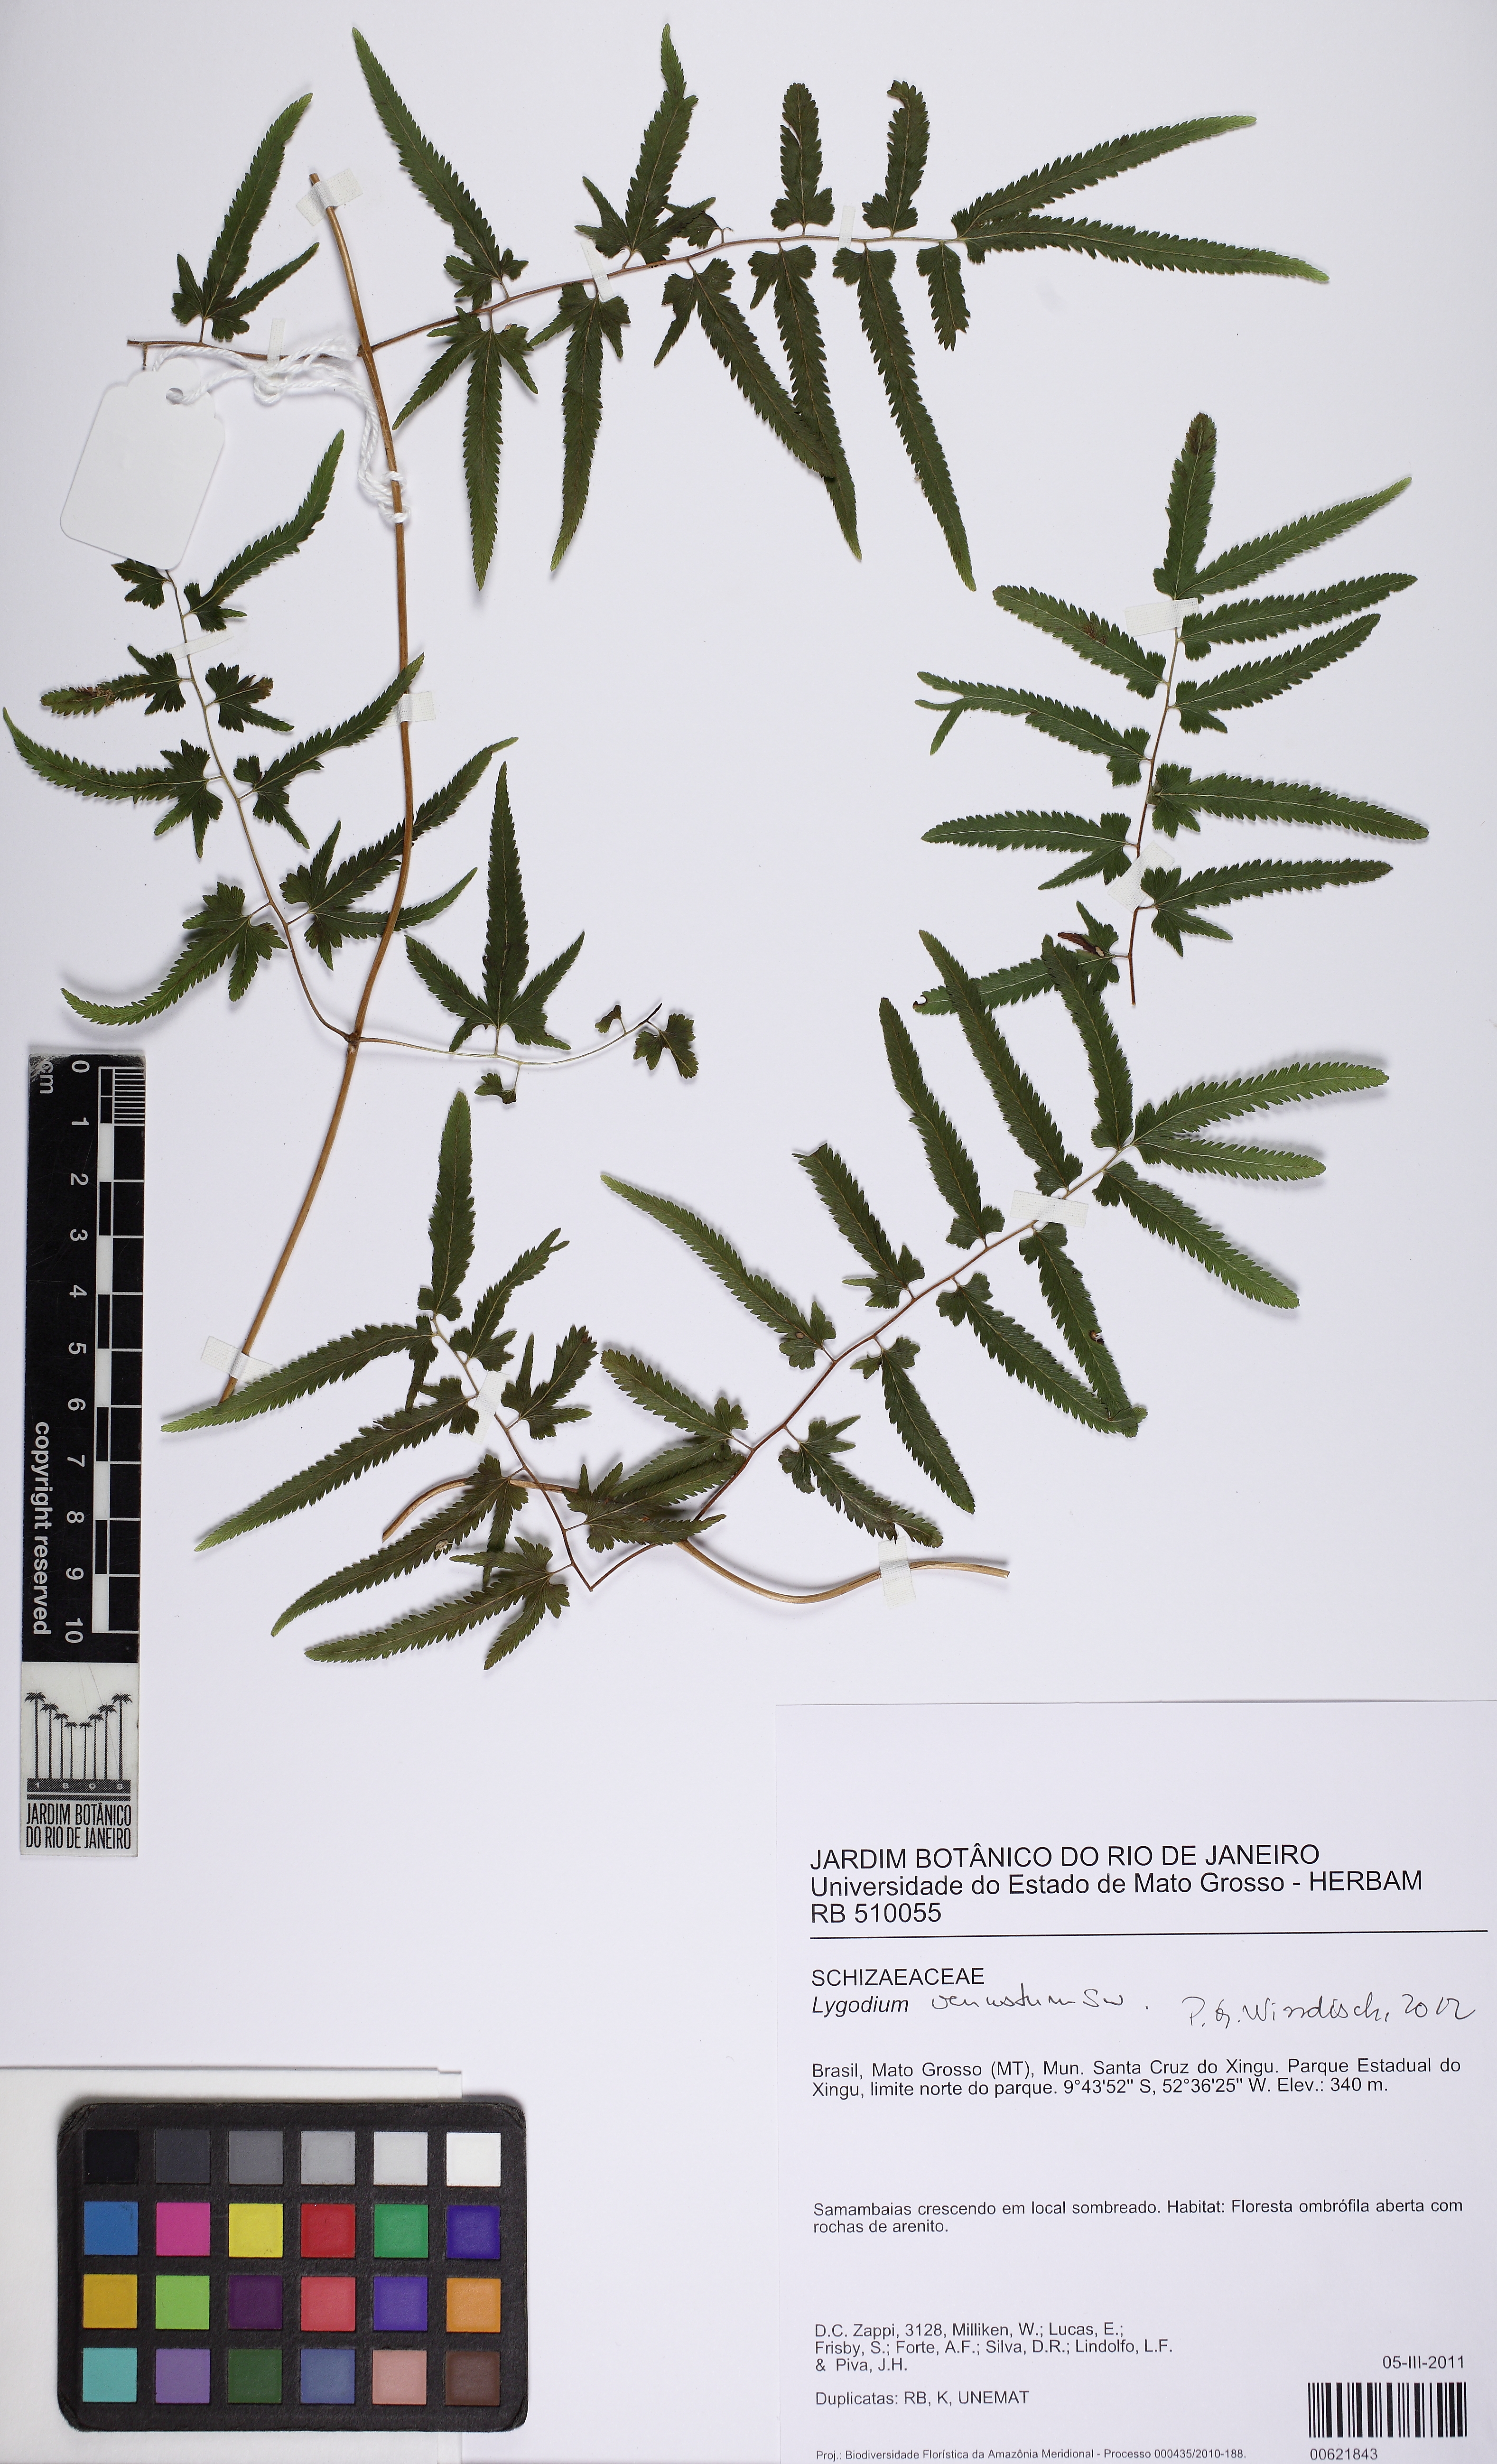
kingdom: Plantae
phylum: Tracheophyta
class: Polypodiopsida
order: Schizaeales
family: Lygodiaceae
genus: Lygodium
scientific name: Lygodium venustum
